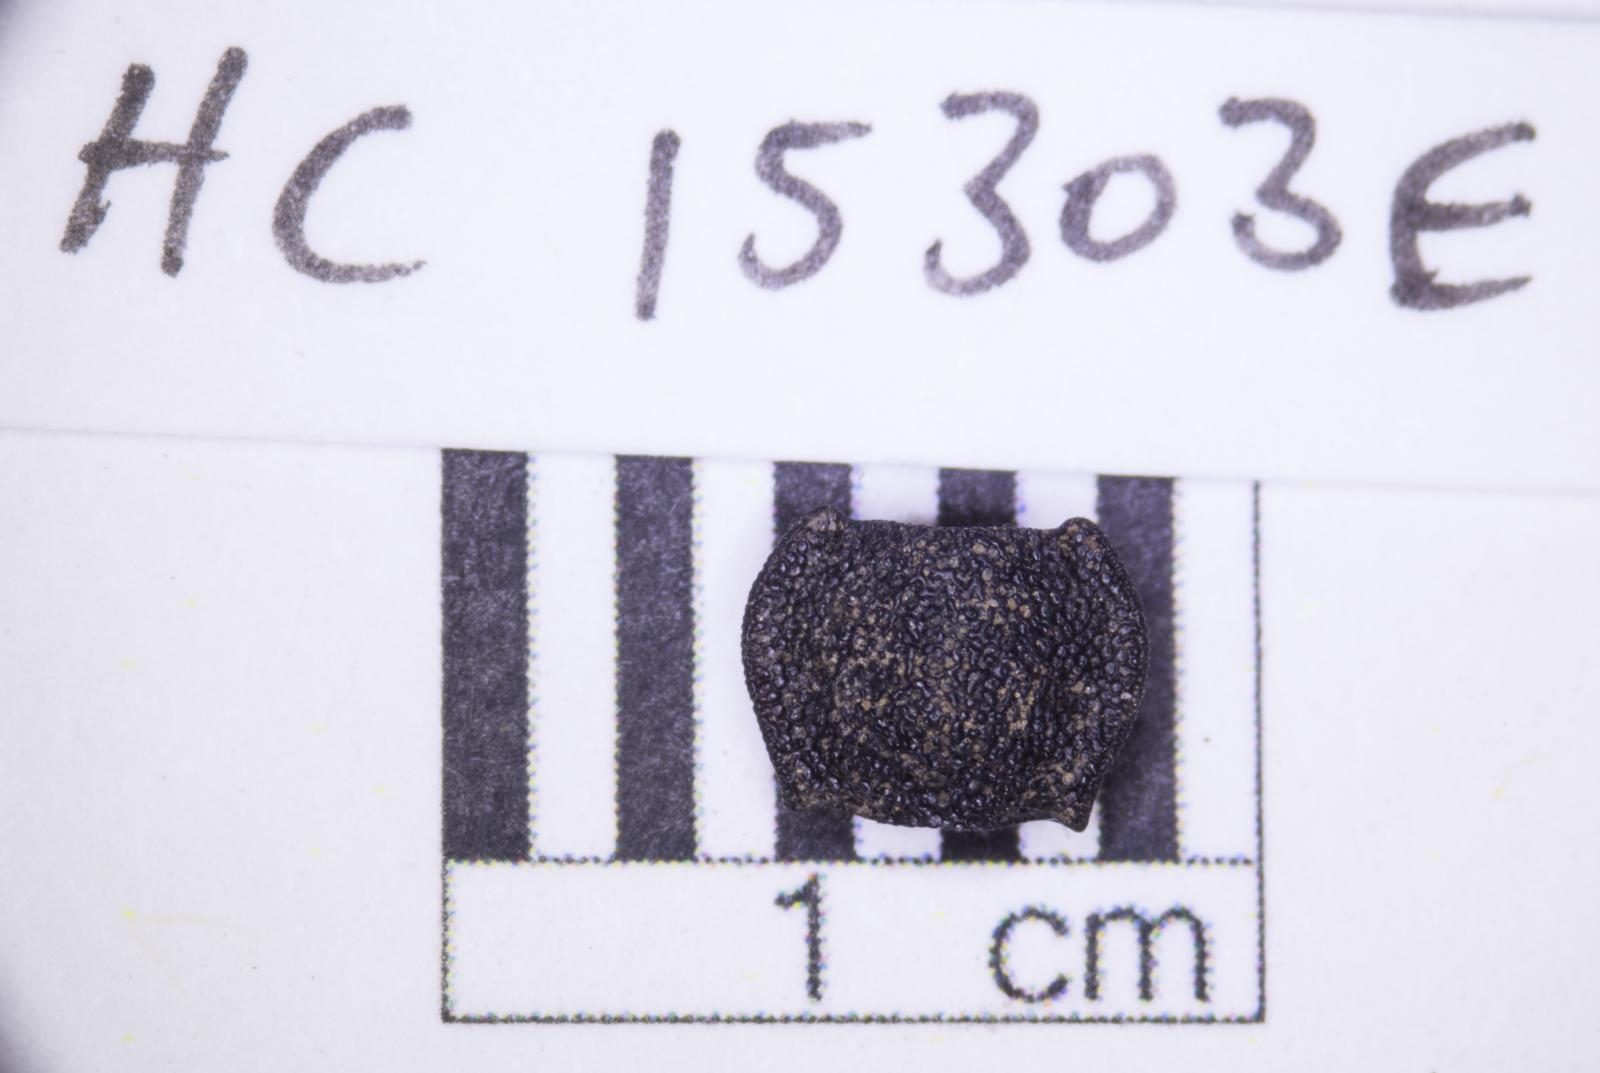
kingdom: Animalia
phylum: Arthropoda
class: Insecta
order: Coleoptera
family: Tenebrionidae
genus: Nyctoporis
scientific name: Nyctoporis carinata
